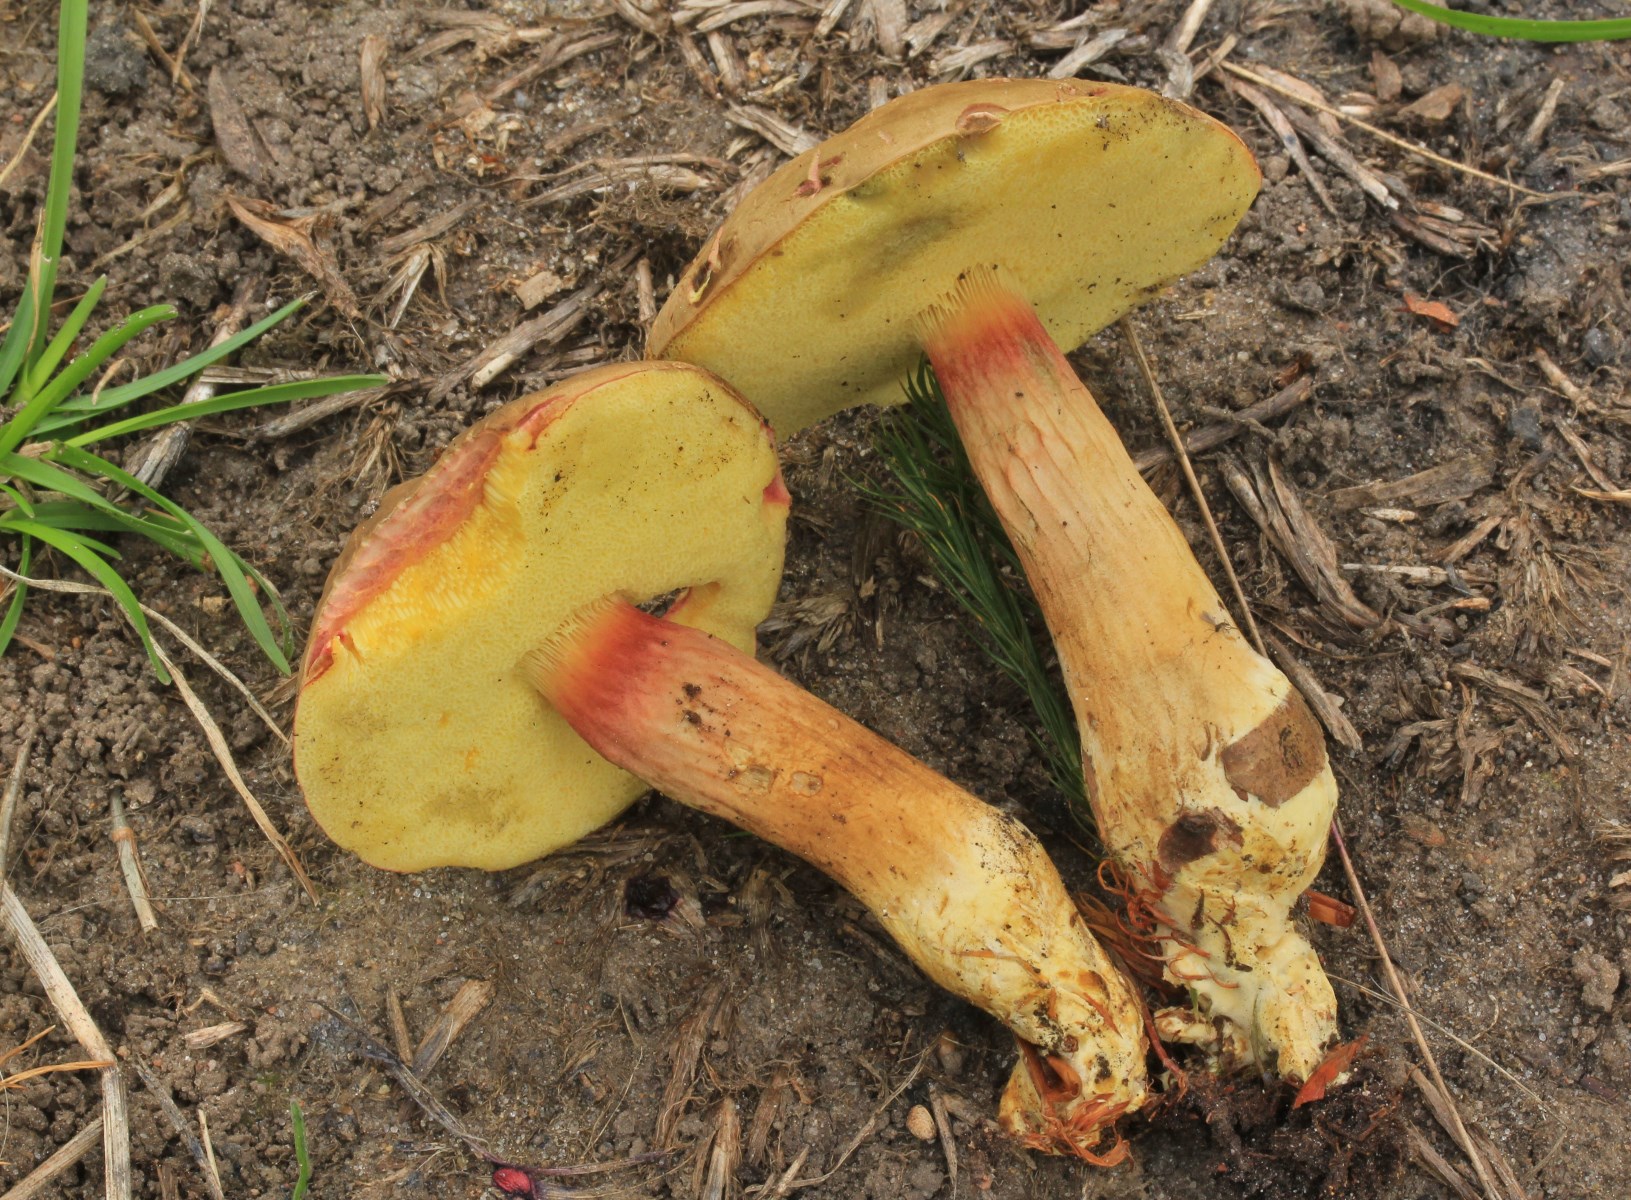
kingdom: Fungi
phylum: Basidiomycota
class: Agaricomycetes
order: Boletales
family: Boletaceae
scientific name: Boletaceae
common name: rørhatfamilien
